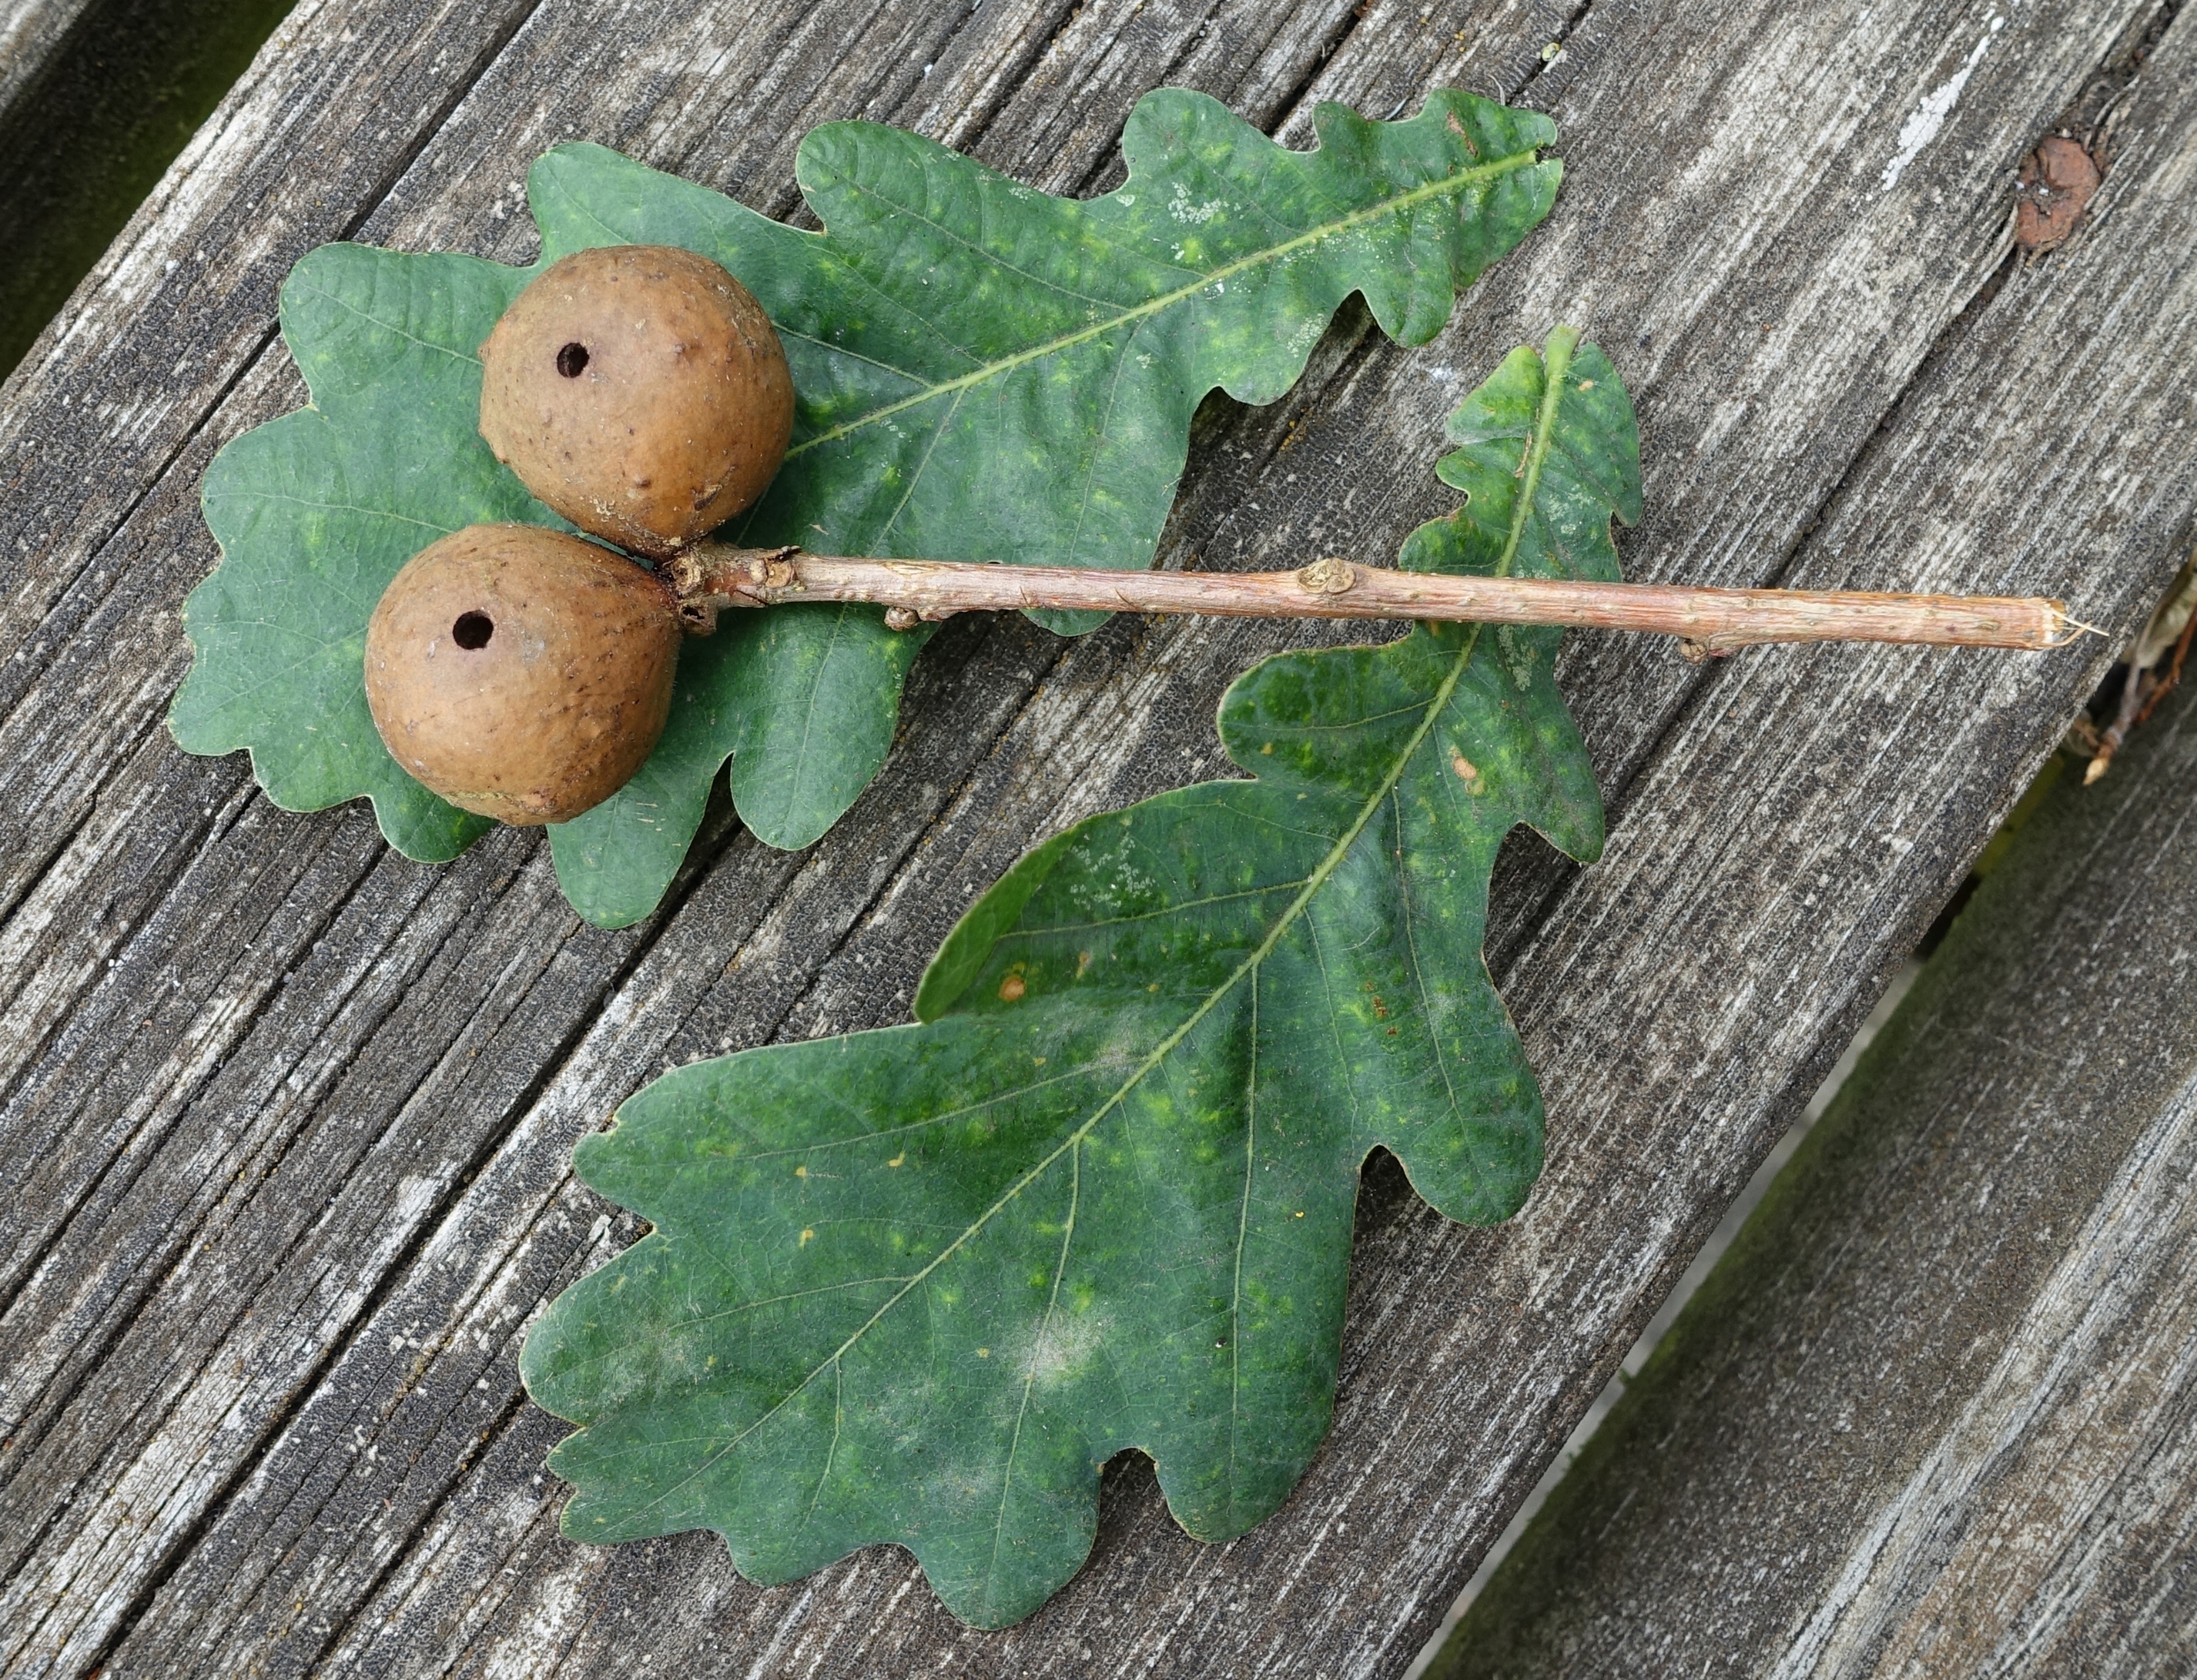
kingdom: Animalia
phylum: Arthropoda
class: Insecta
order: Hymenoptera
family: Cynipidae
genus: Andricus
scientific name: Andricus kollari
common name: Marmorkugle-galhveps
